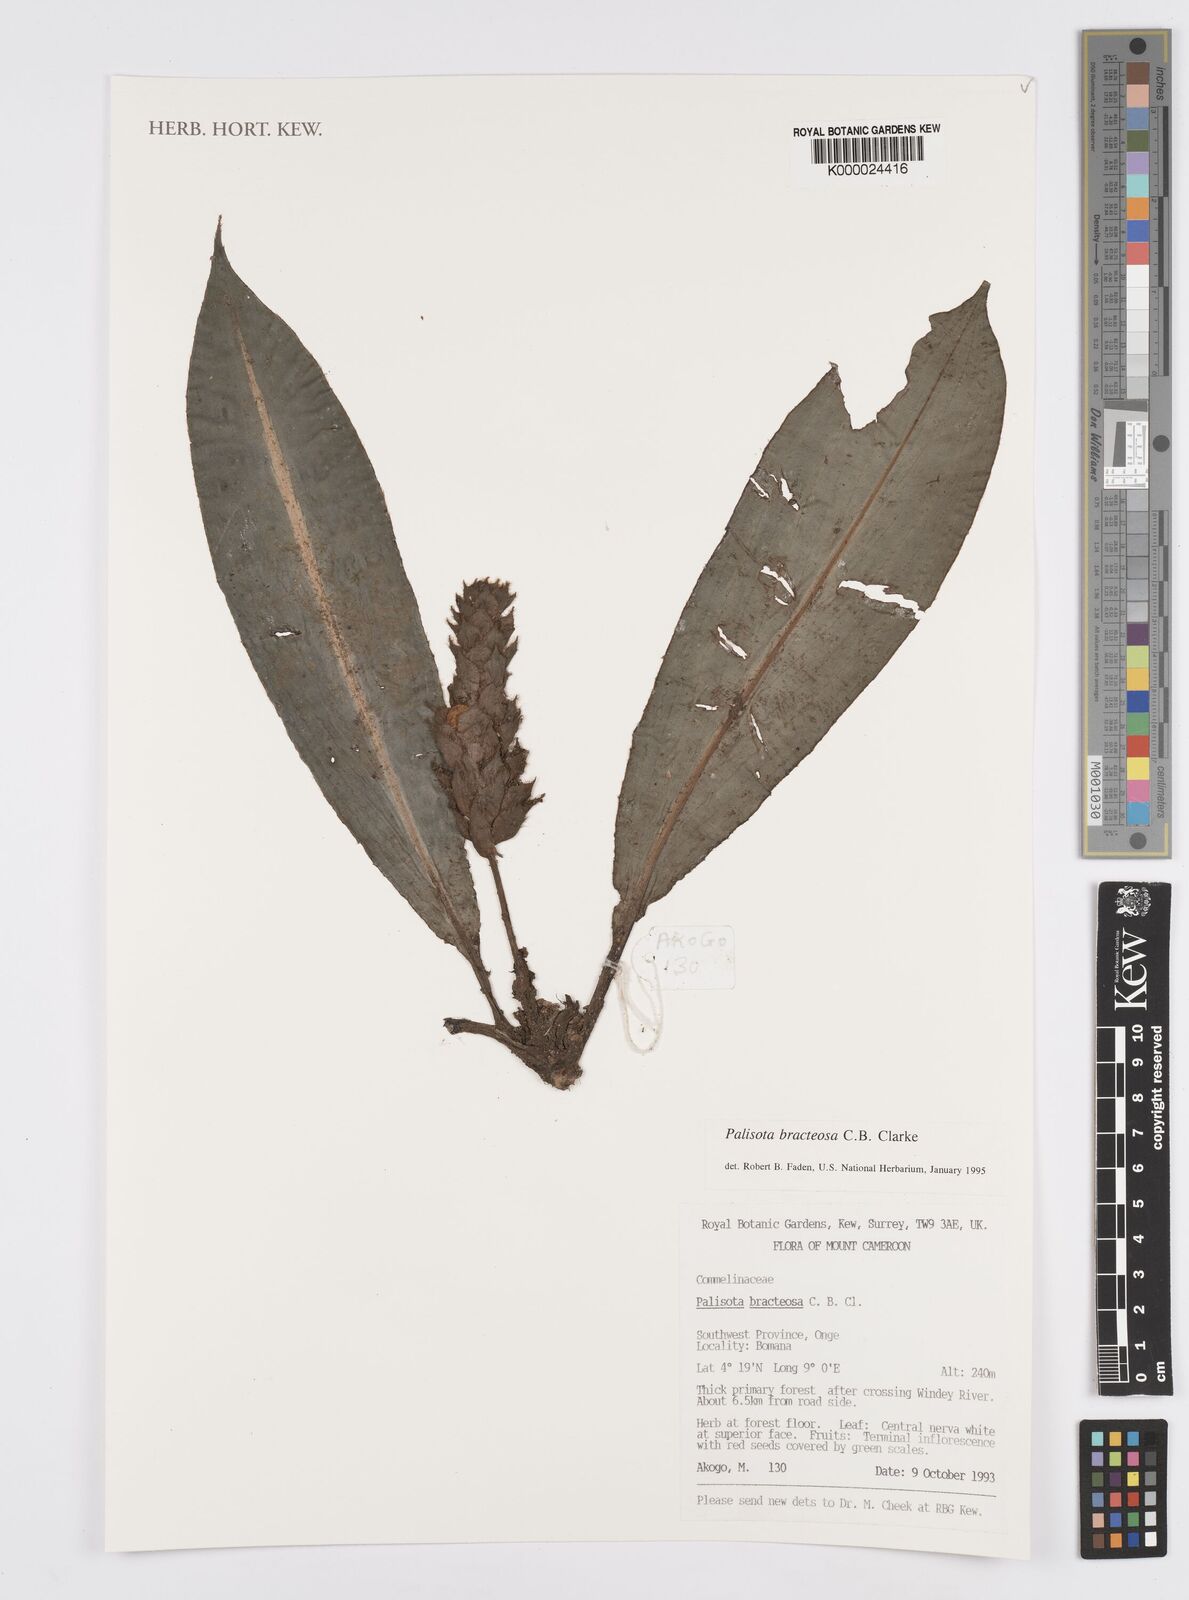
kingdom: Plantae
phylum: Tracheophyta
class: Liliopsida
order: Commelinales
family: Commelinaceae
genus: Palisota
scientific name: Palisota bracteosa
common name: Palisota
